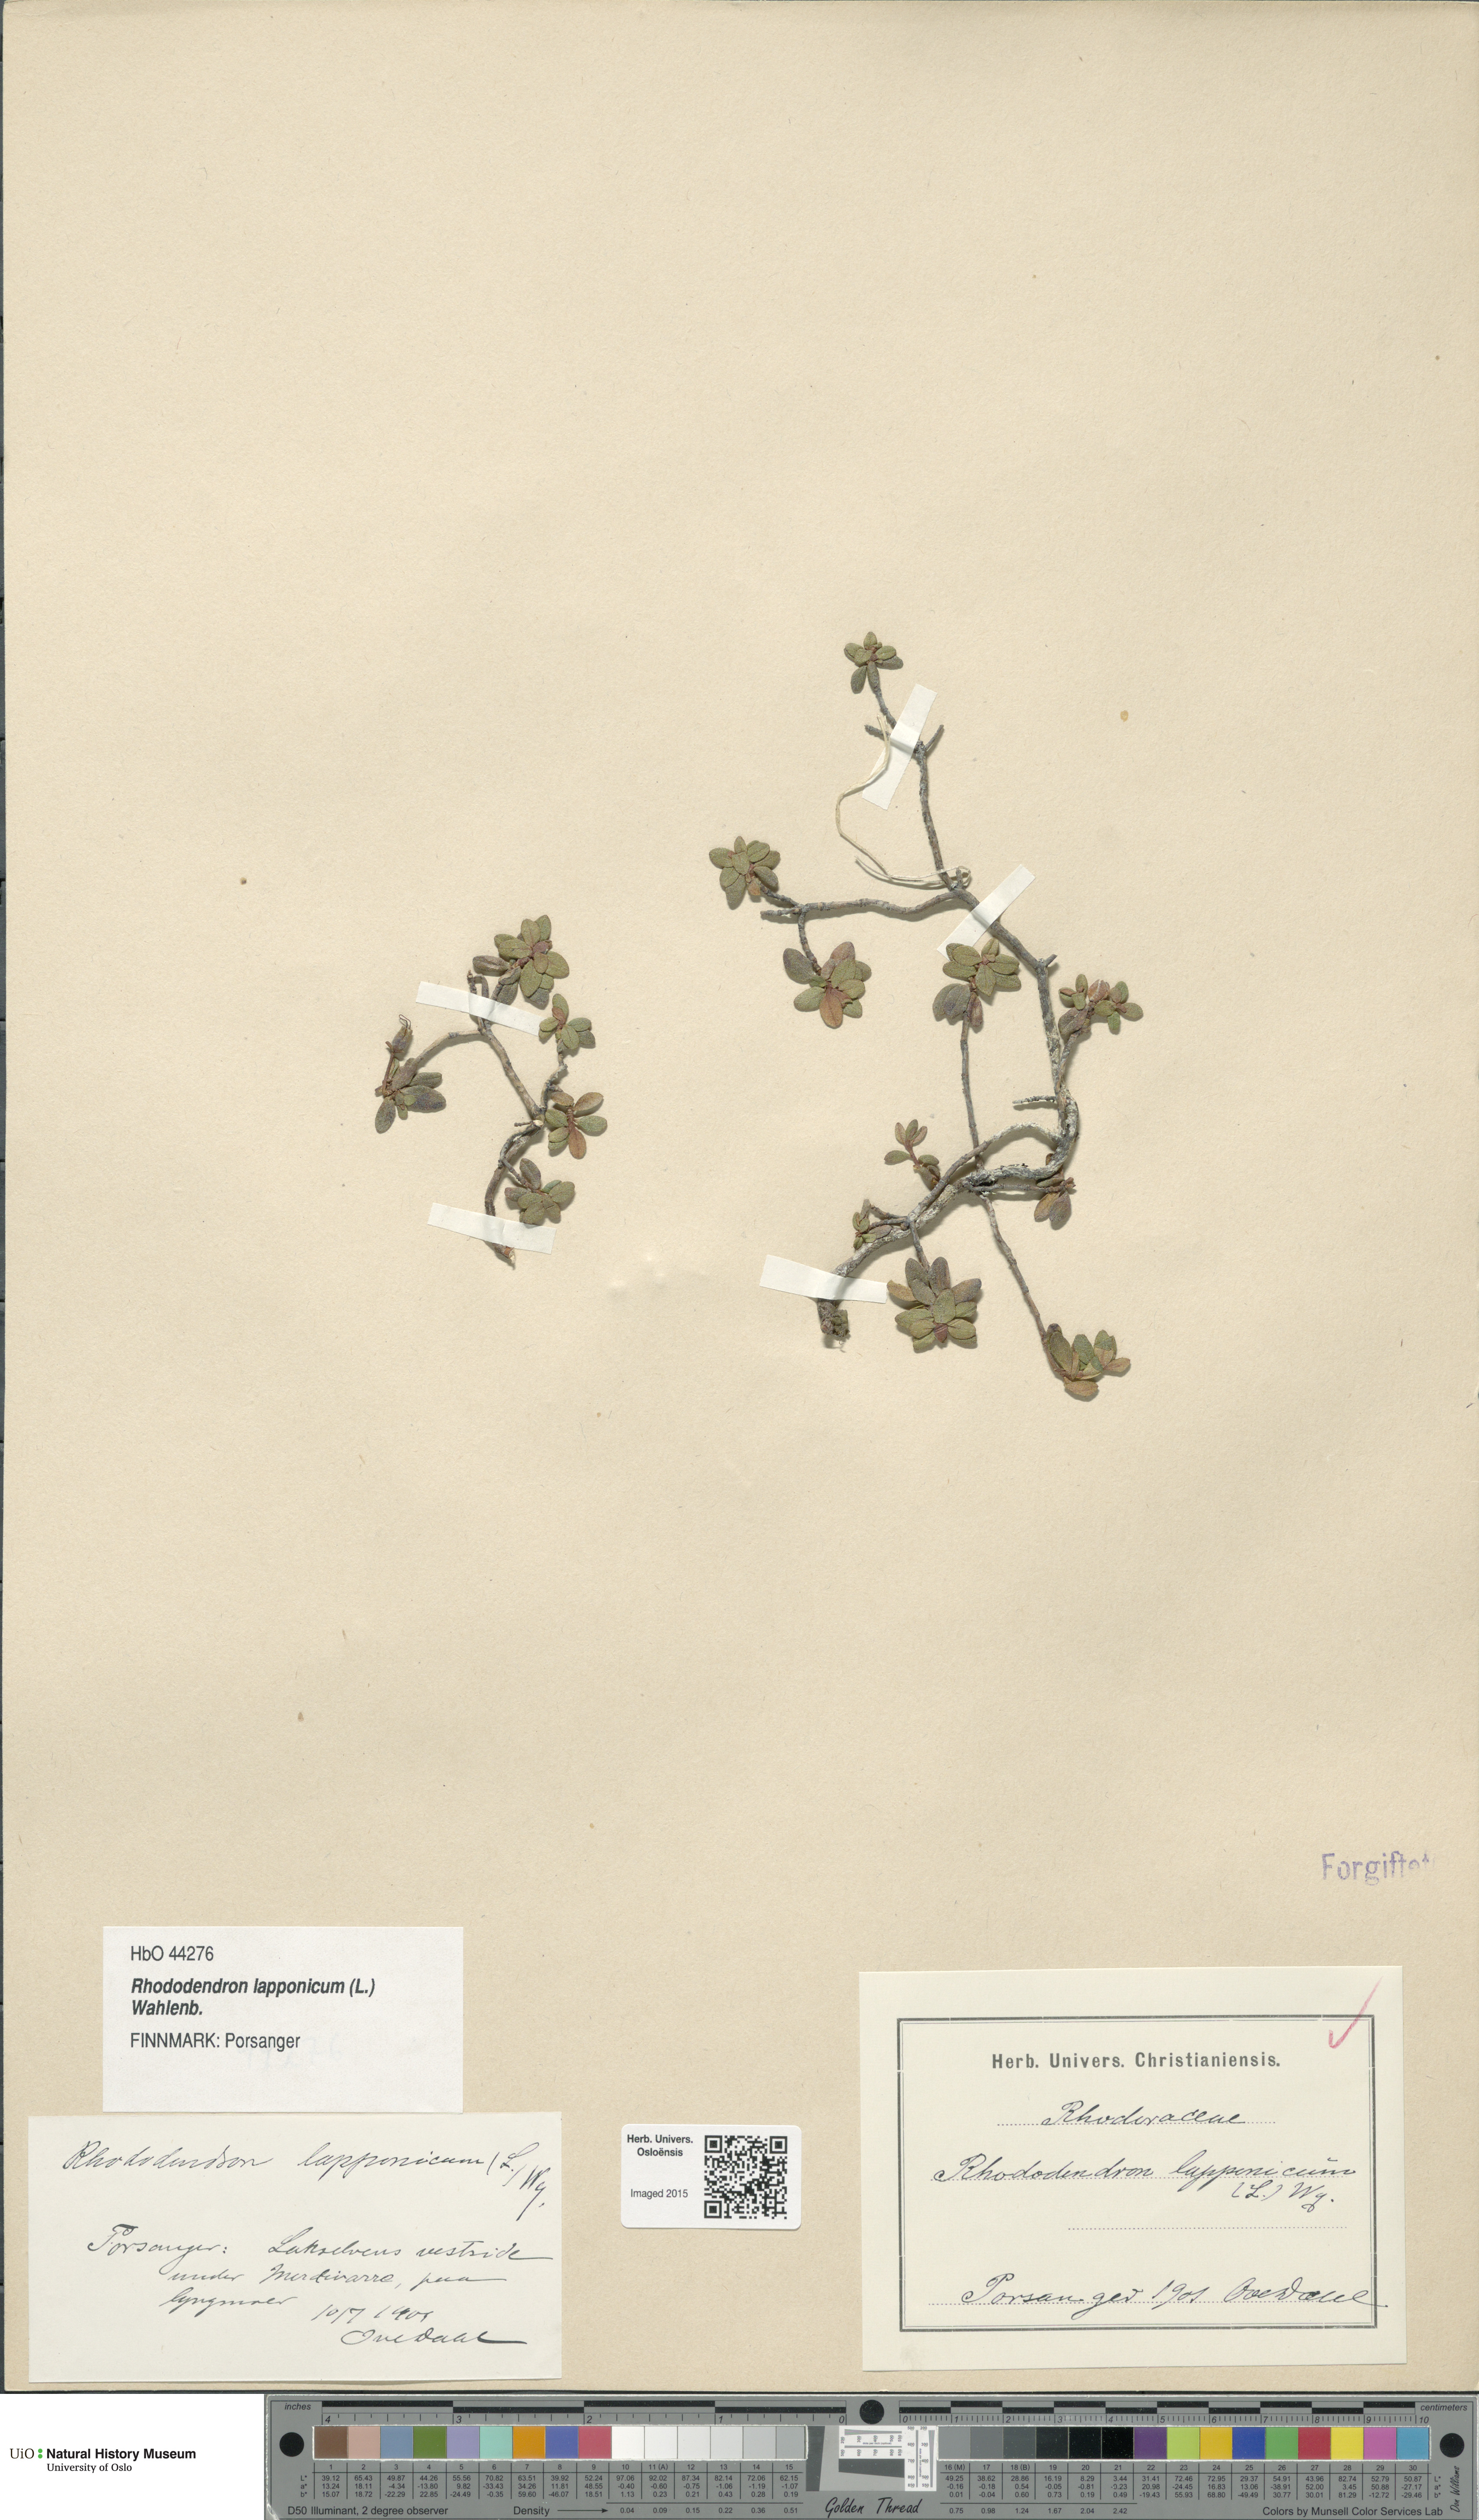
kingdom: Plantae
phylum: Tracheophyta
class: Magnoliopsida
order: Ericales
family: Ericaceae
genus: Rhododendron
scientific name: Rhododendron lapponicum
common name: Lapland rhododendron
